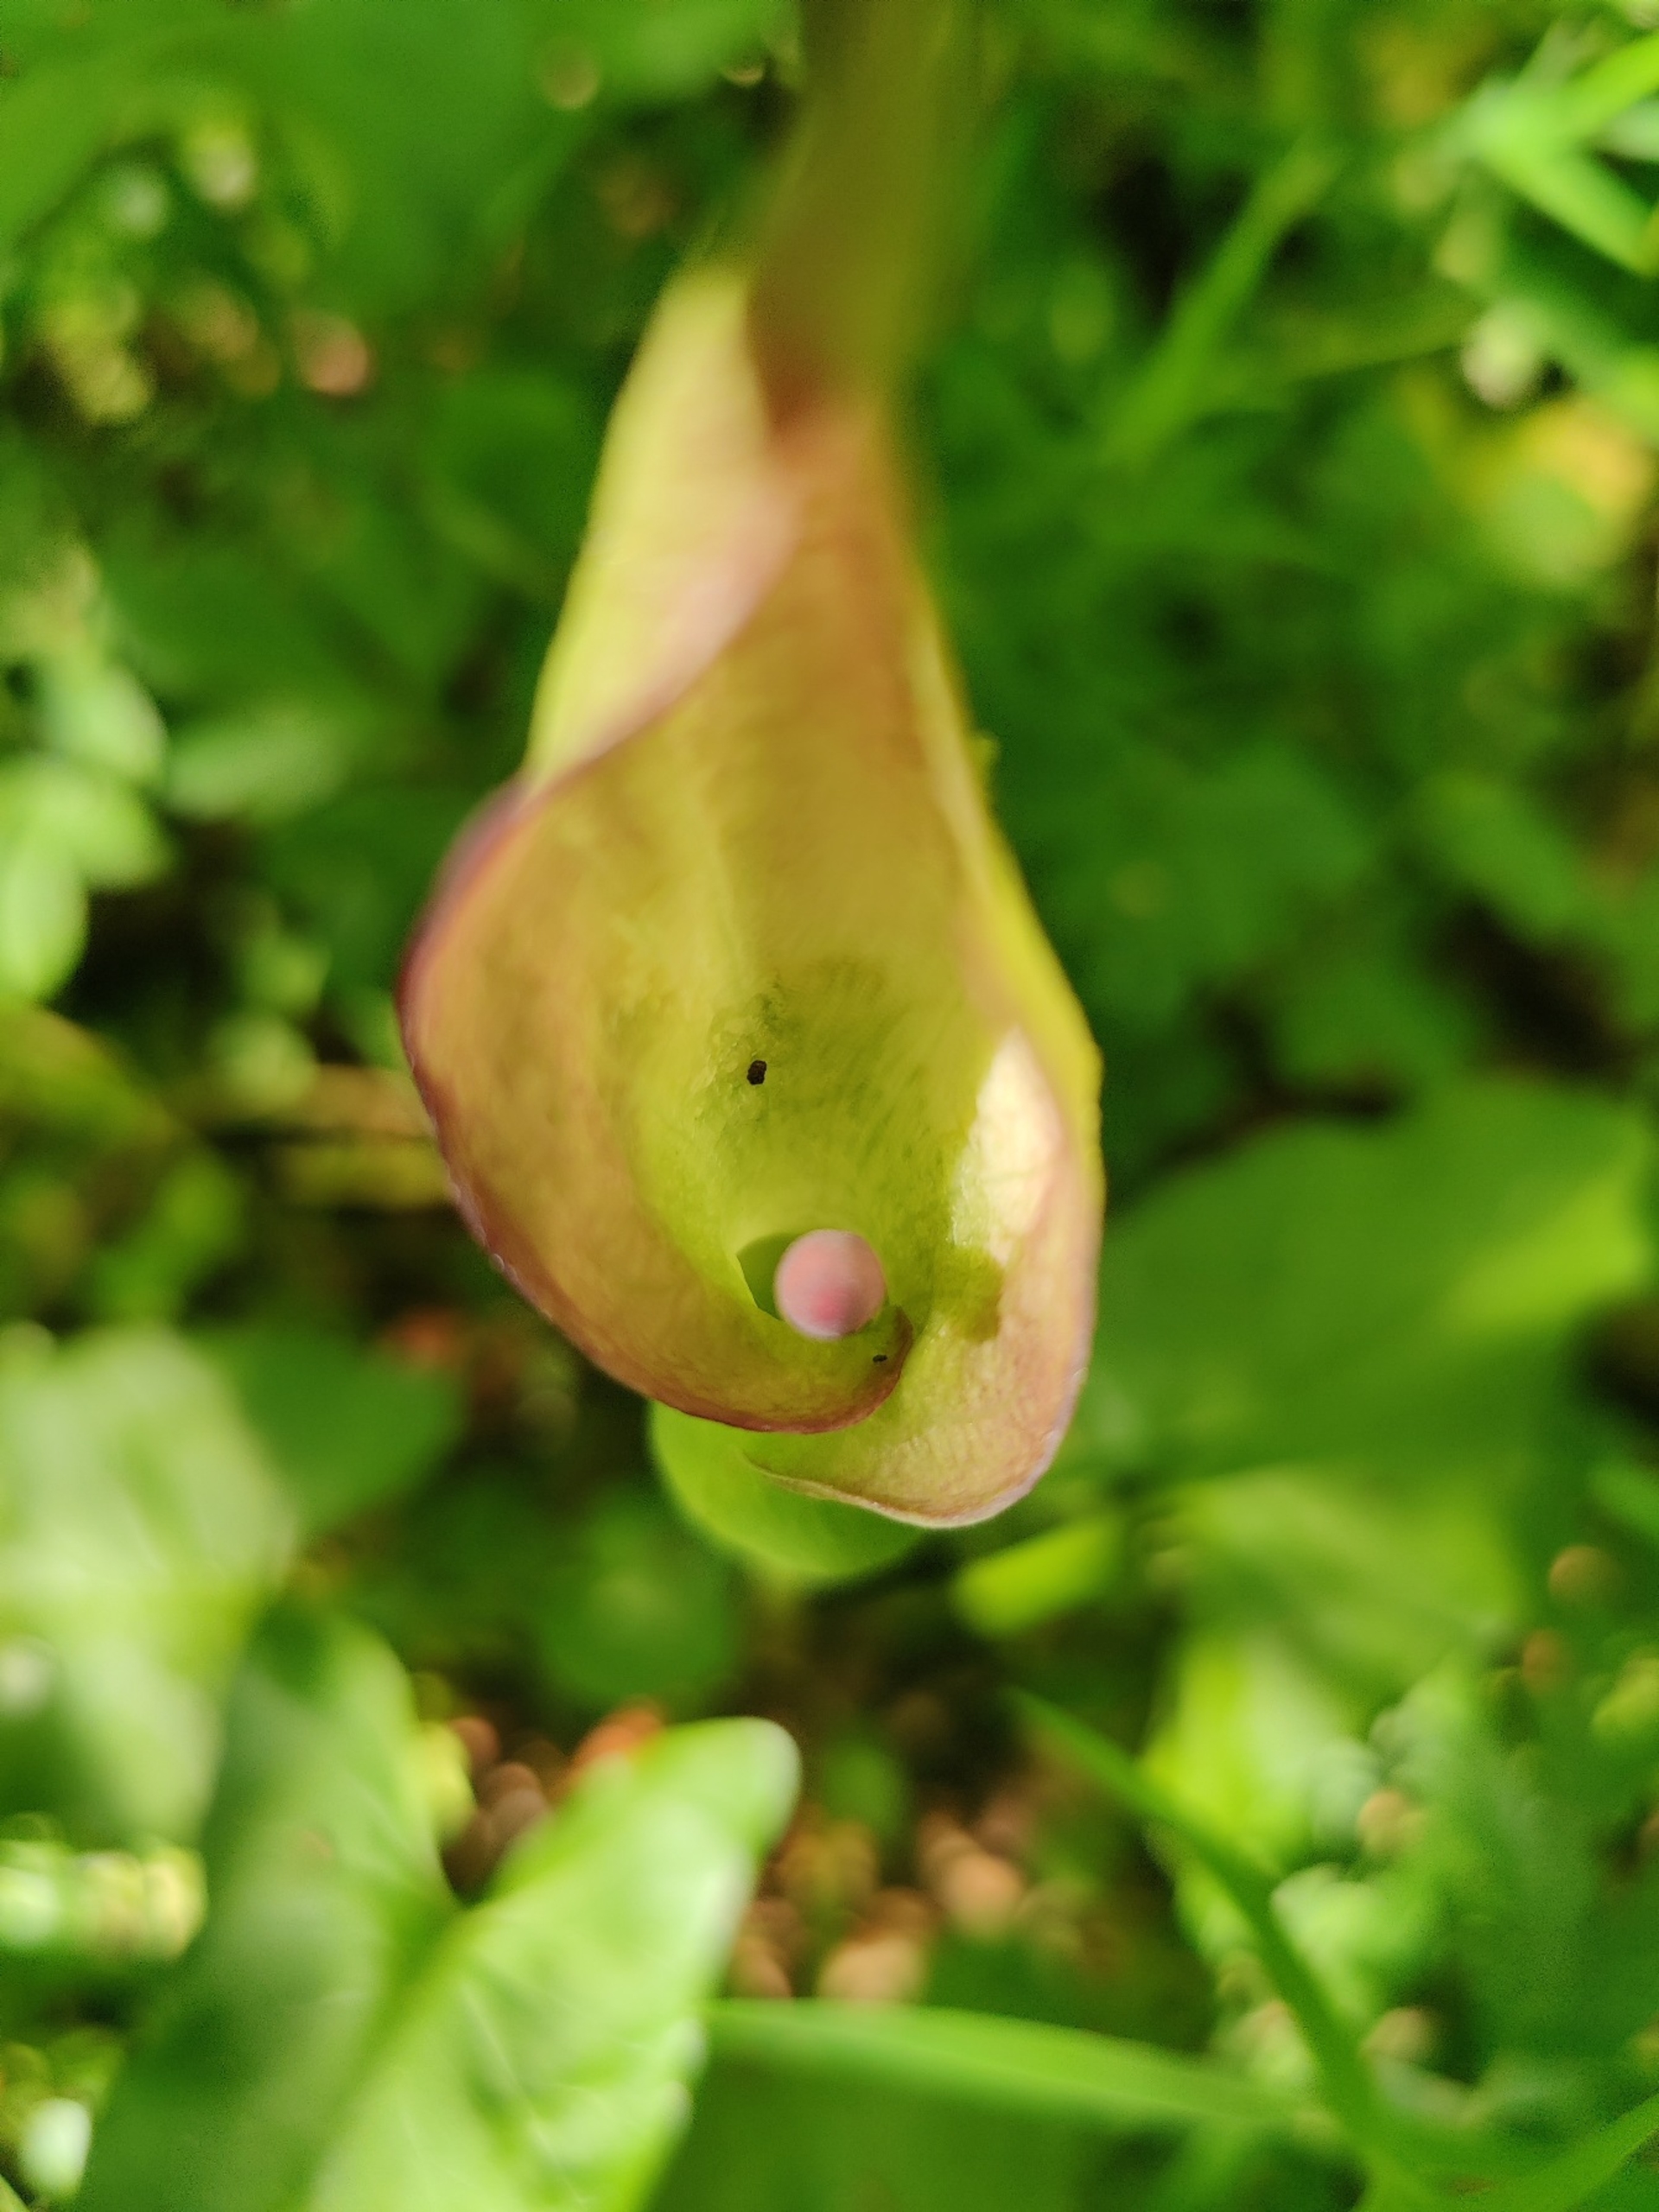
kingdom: Plantae
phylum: Tracheophyta
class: Liliopsida
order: Alismatales
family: Araceae
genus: Arum
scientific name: Arum maculatum
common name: Plettet arum
